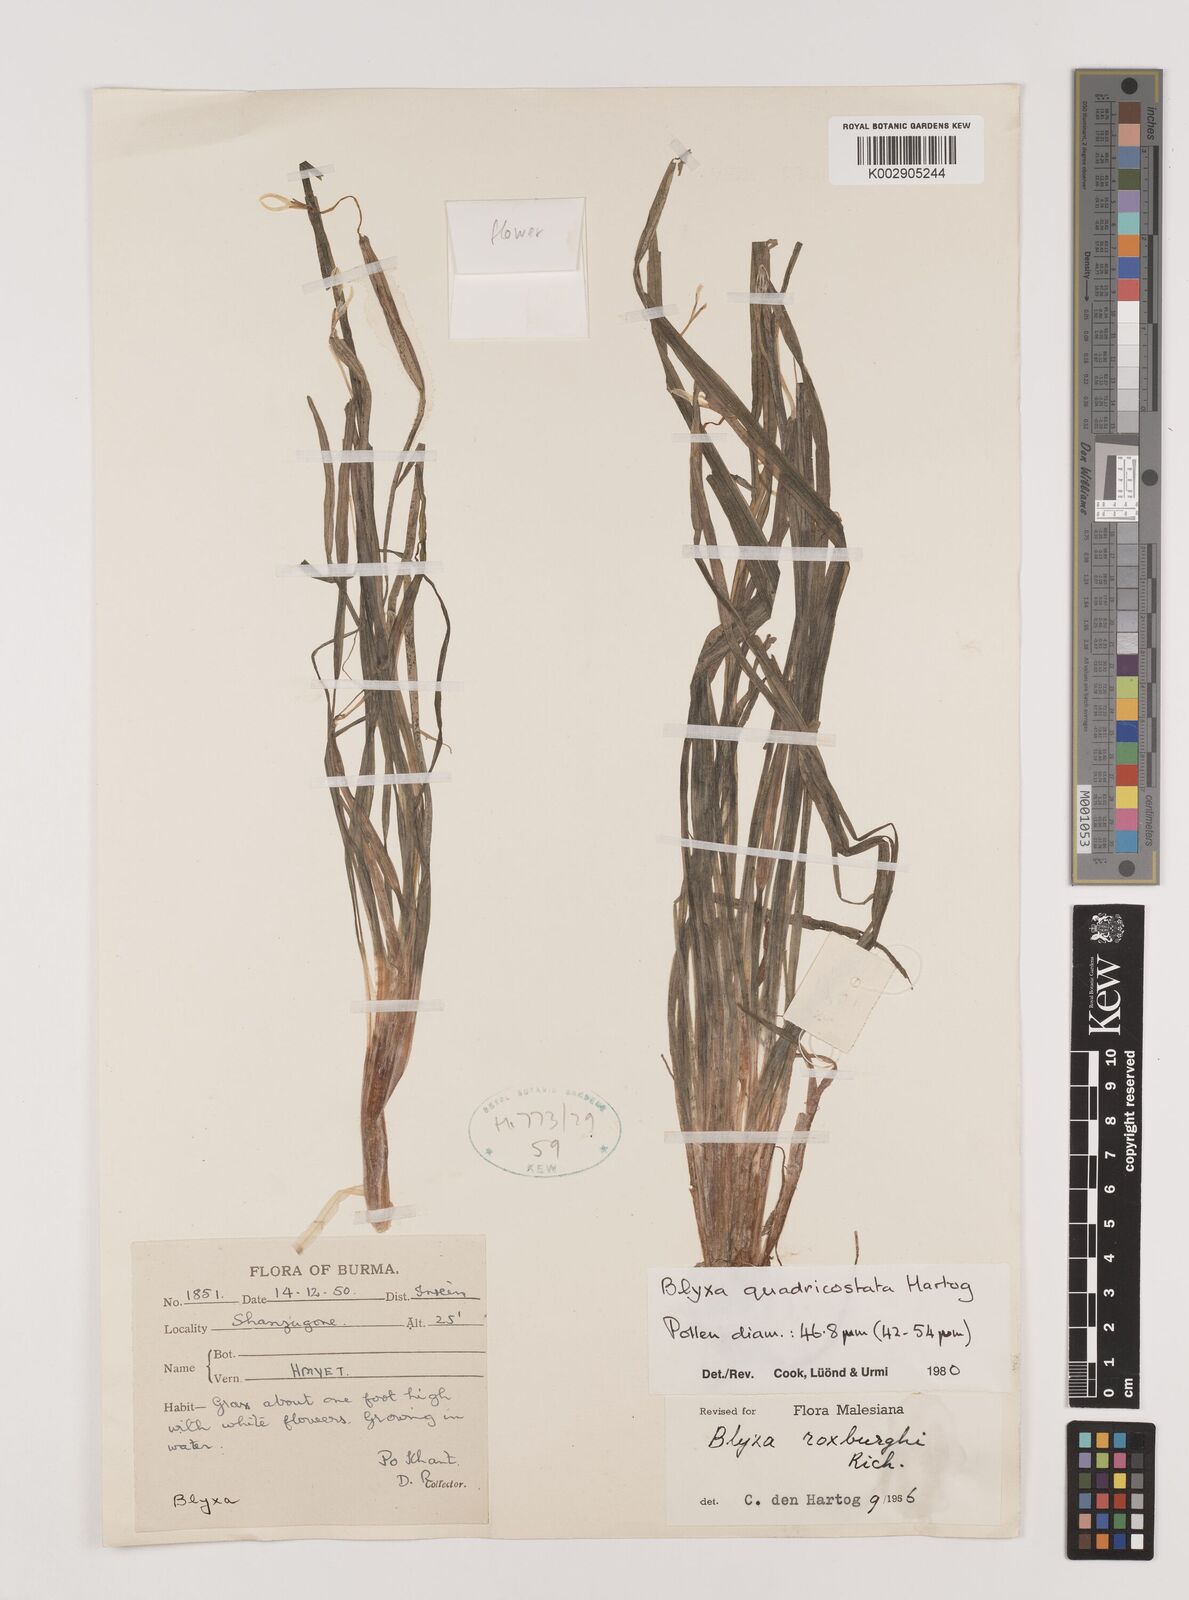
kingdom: Plantae
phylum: Tracheophyta
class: Liliopsida
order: Alismatales
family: Hydrocharitaceae
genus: Blyxa
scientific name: Blyxa quadricostata
